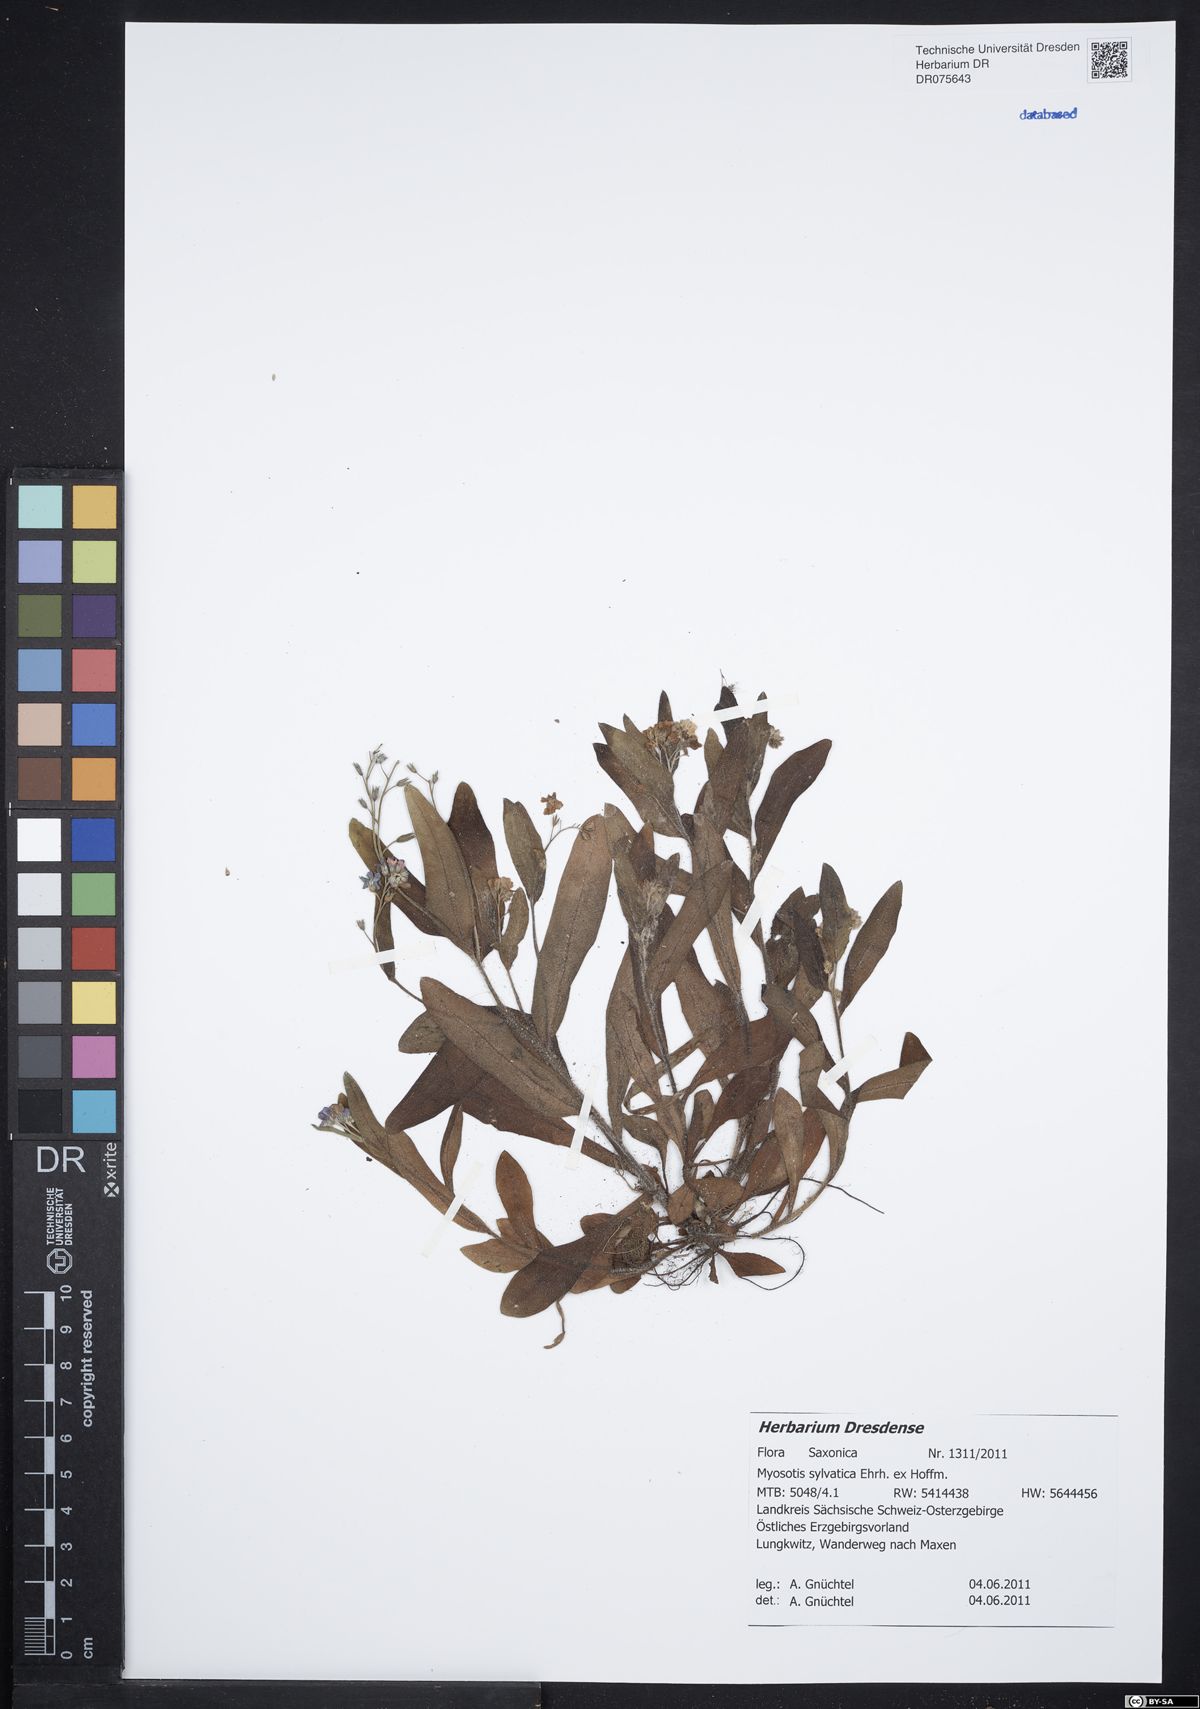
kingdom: Plantae
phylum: Tracheophyta
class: Magnoliopsida
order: Boraginales
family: Boraginaceae
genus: Myosotis
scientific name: Myosotis sylvatica
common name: Wood forget-me-not
